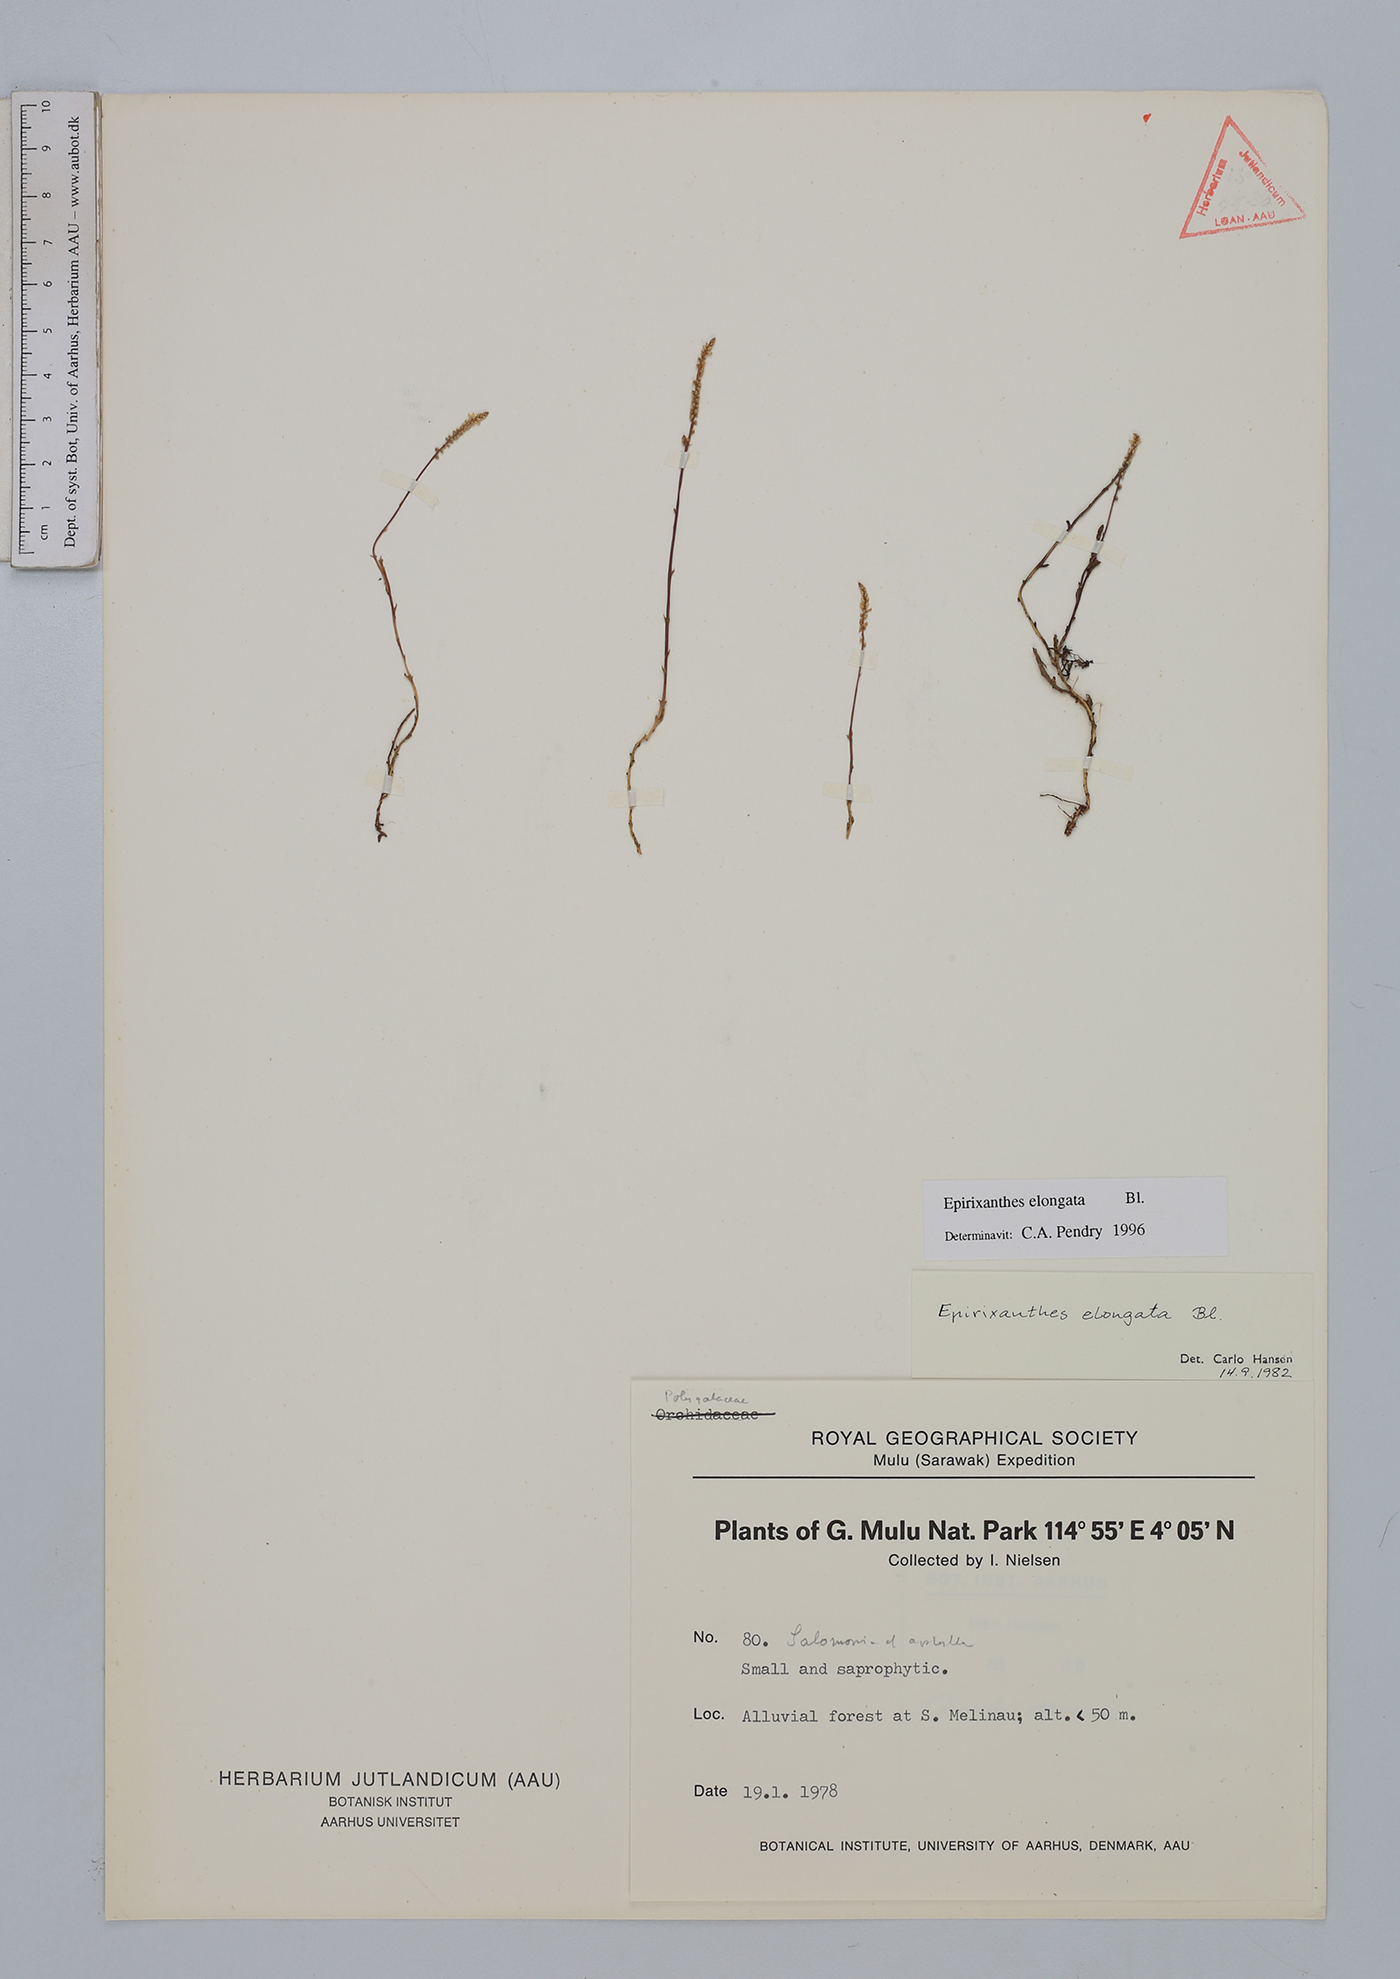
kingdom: Plantae
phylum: Tracheophyta
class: Magnoliopsida
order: Fabales
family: Polygalaceae
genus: Epirixanthes
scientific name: Epirixanthes elongata
